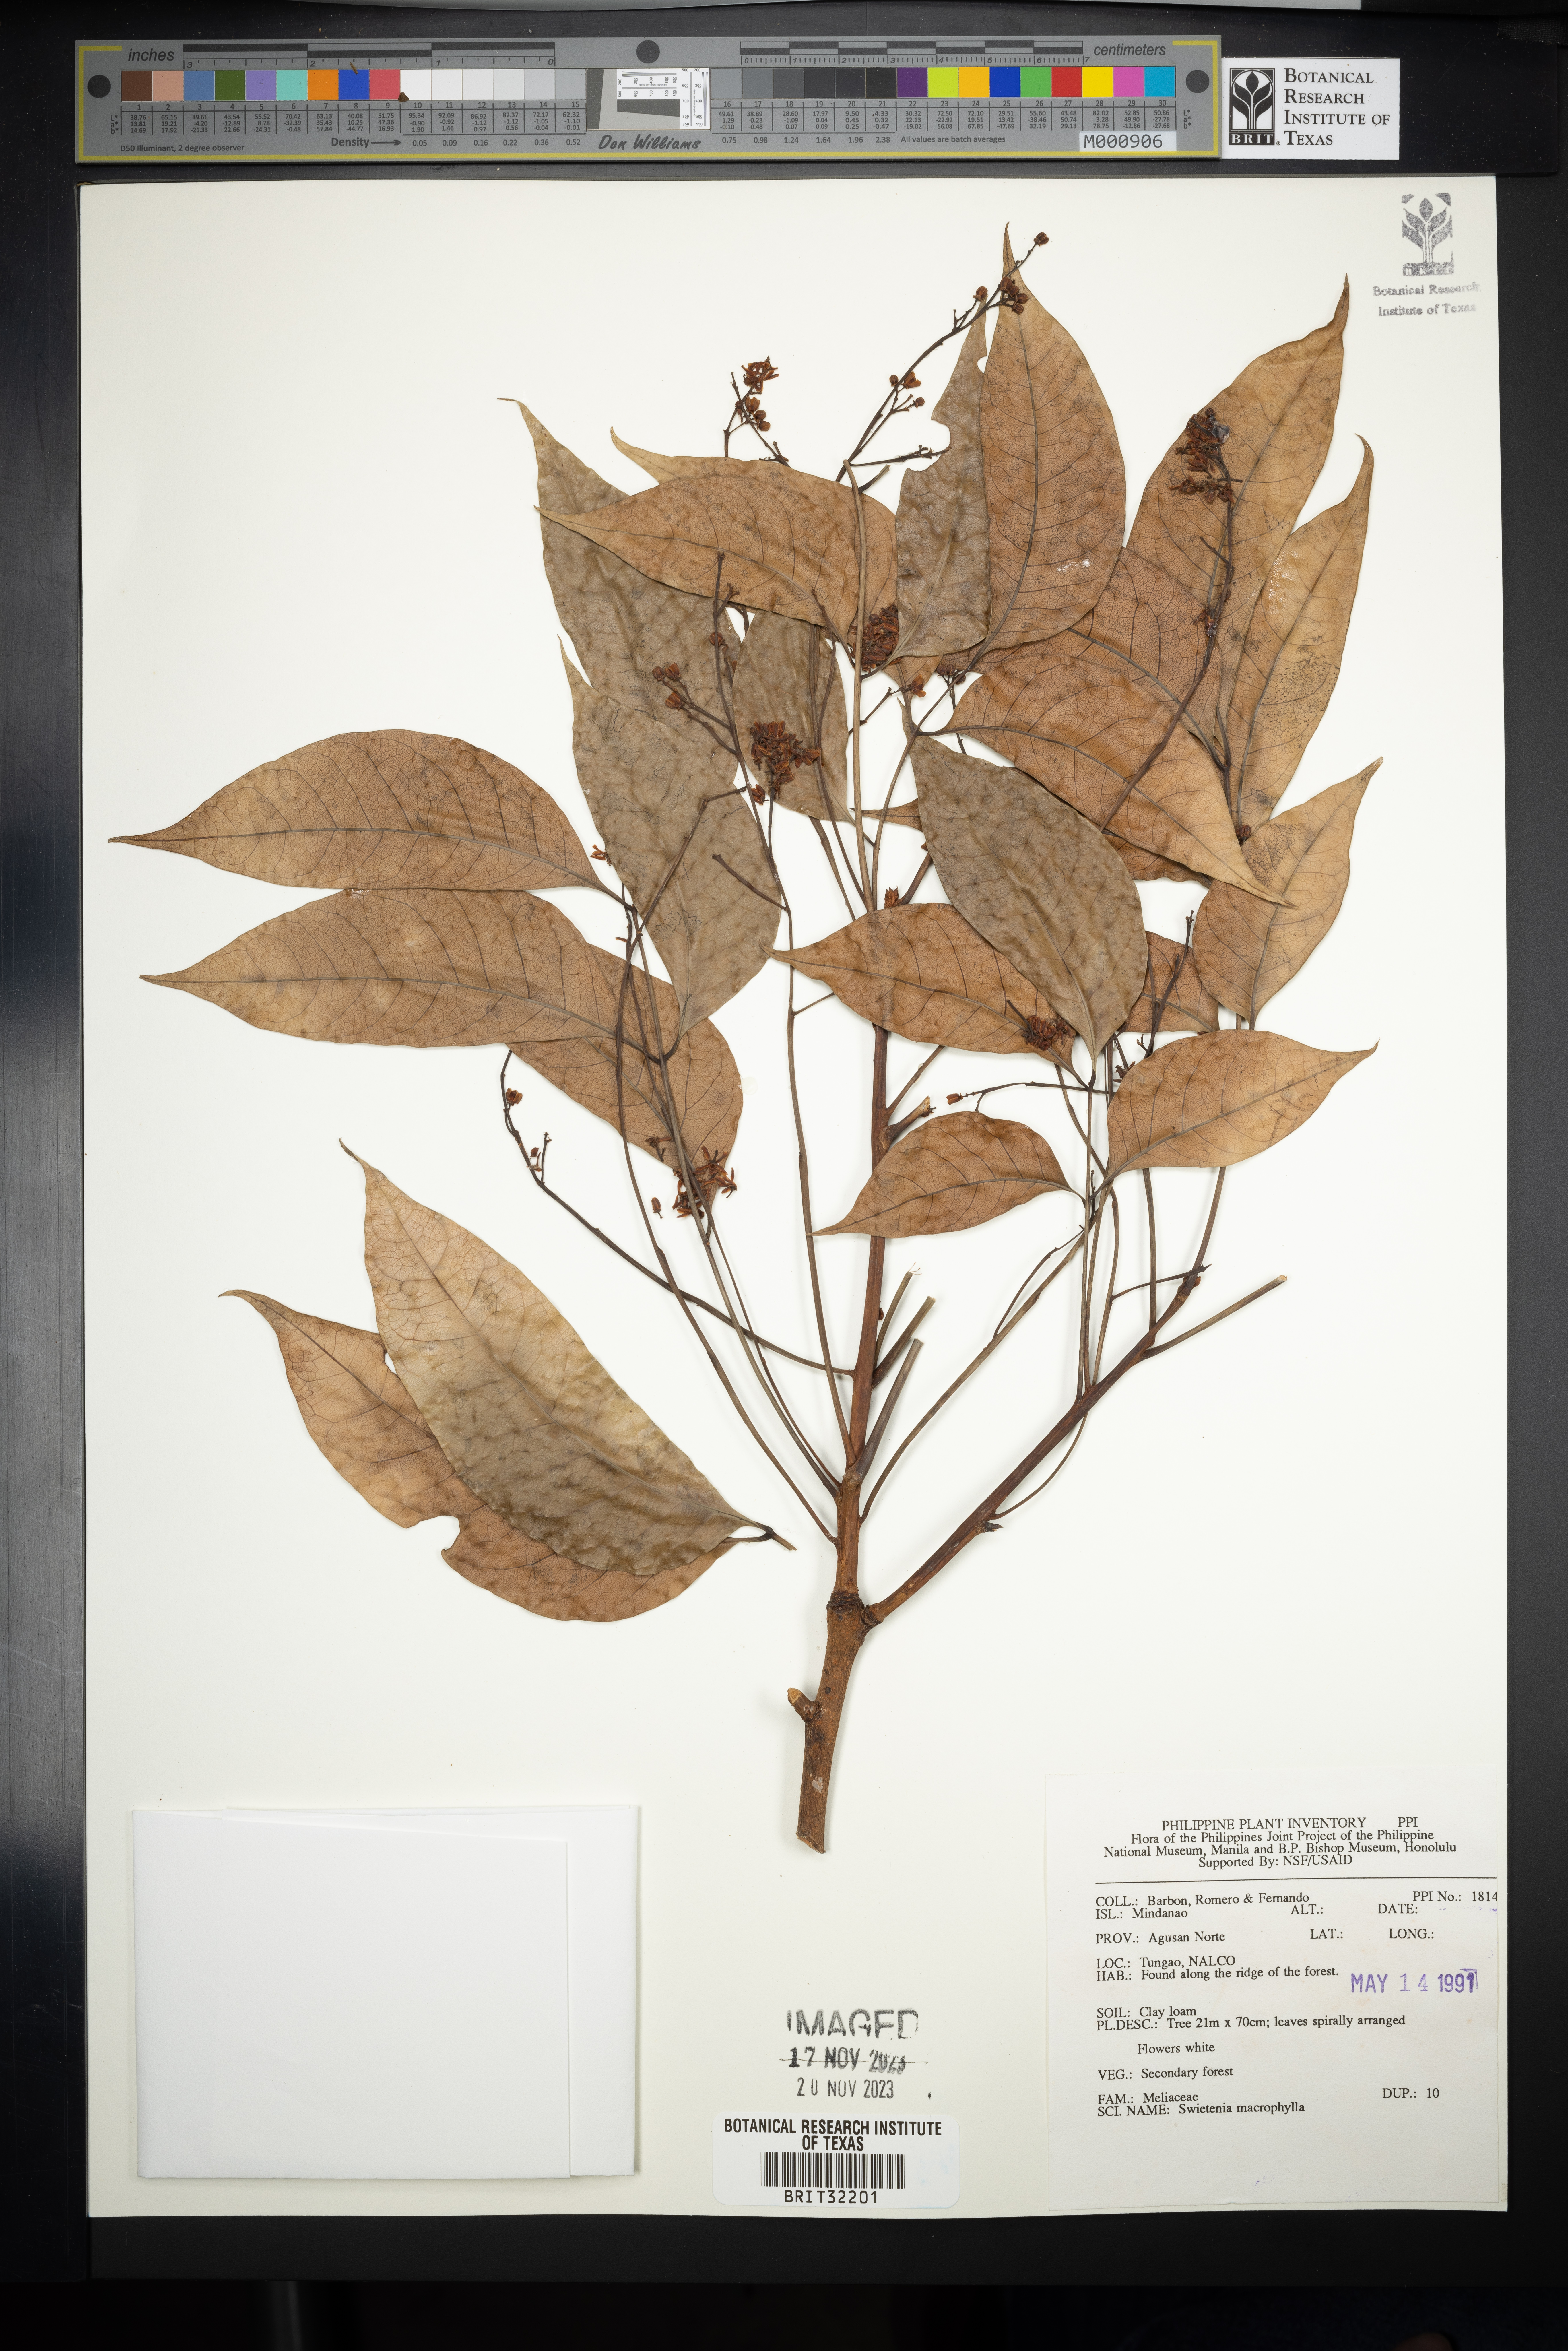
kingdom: Plantae
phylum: Tracheophyta
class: Magnoliopsida
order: Sapindales
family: Meliaceae
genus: Swietenia
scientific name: Swietenia macrophylla
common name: Honduras mahogany
